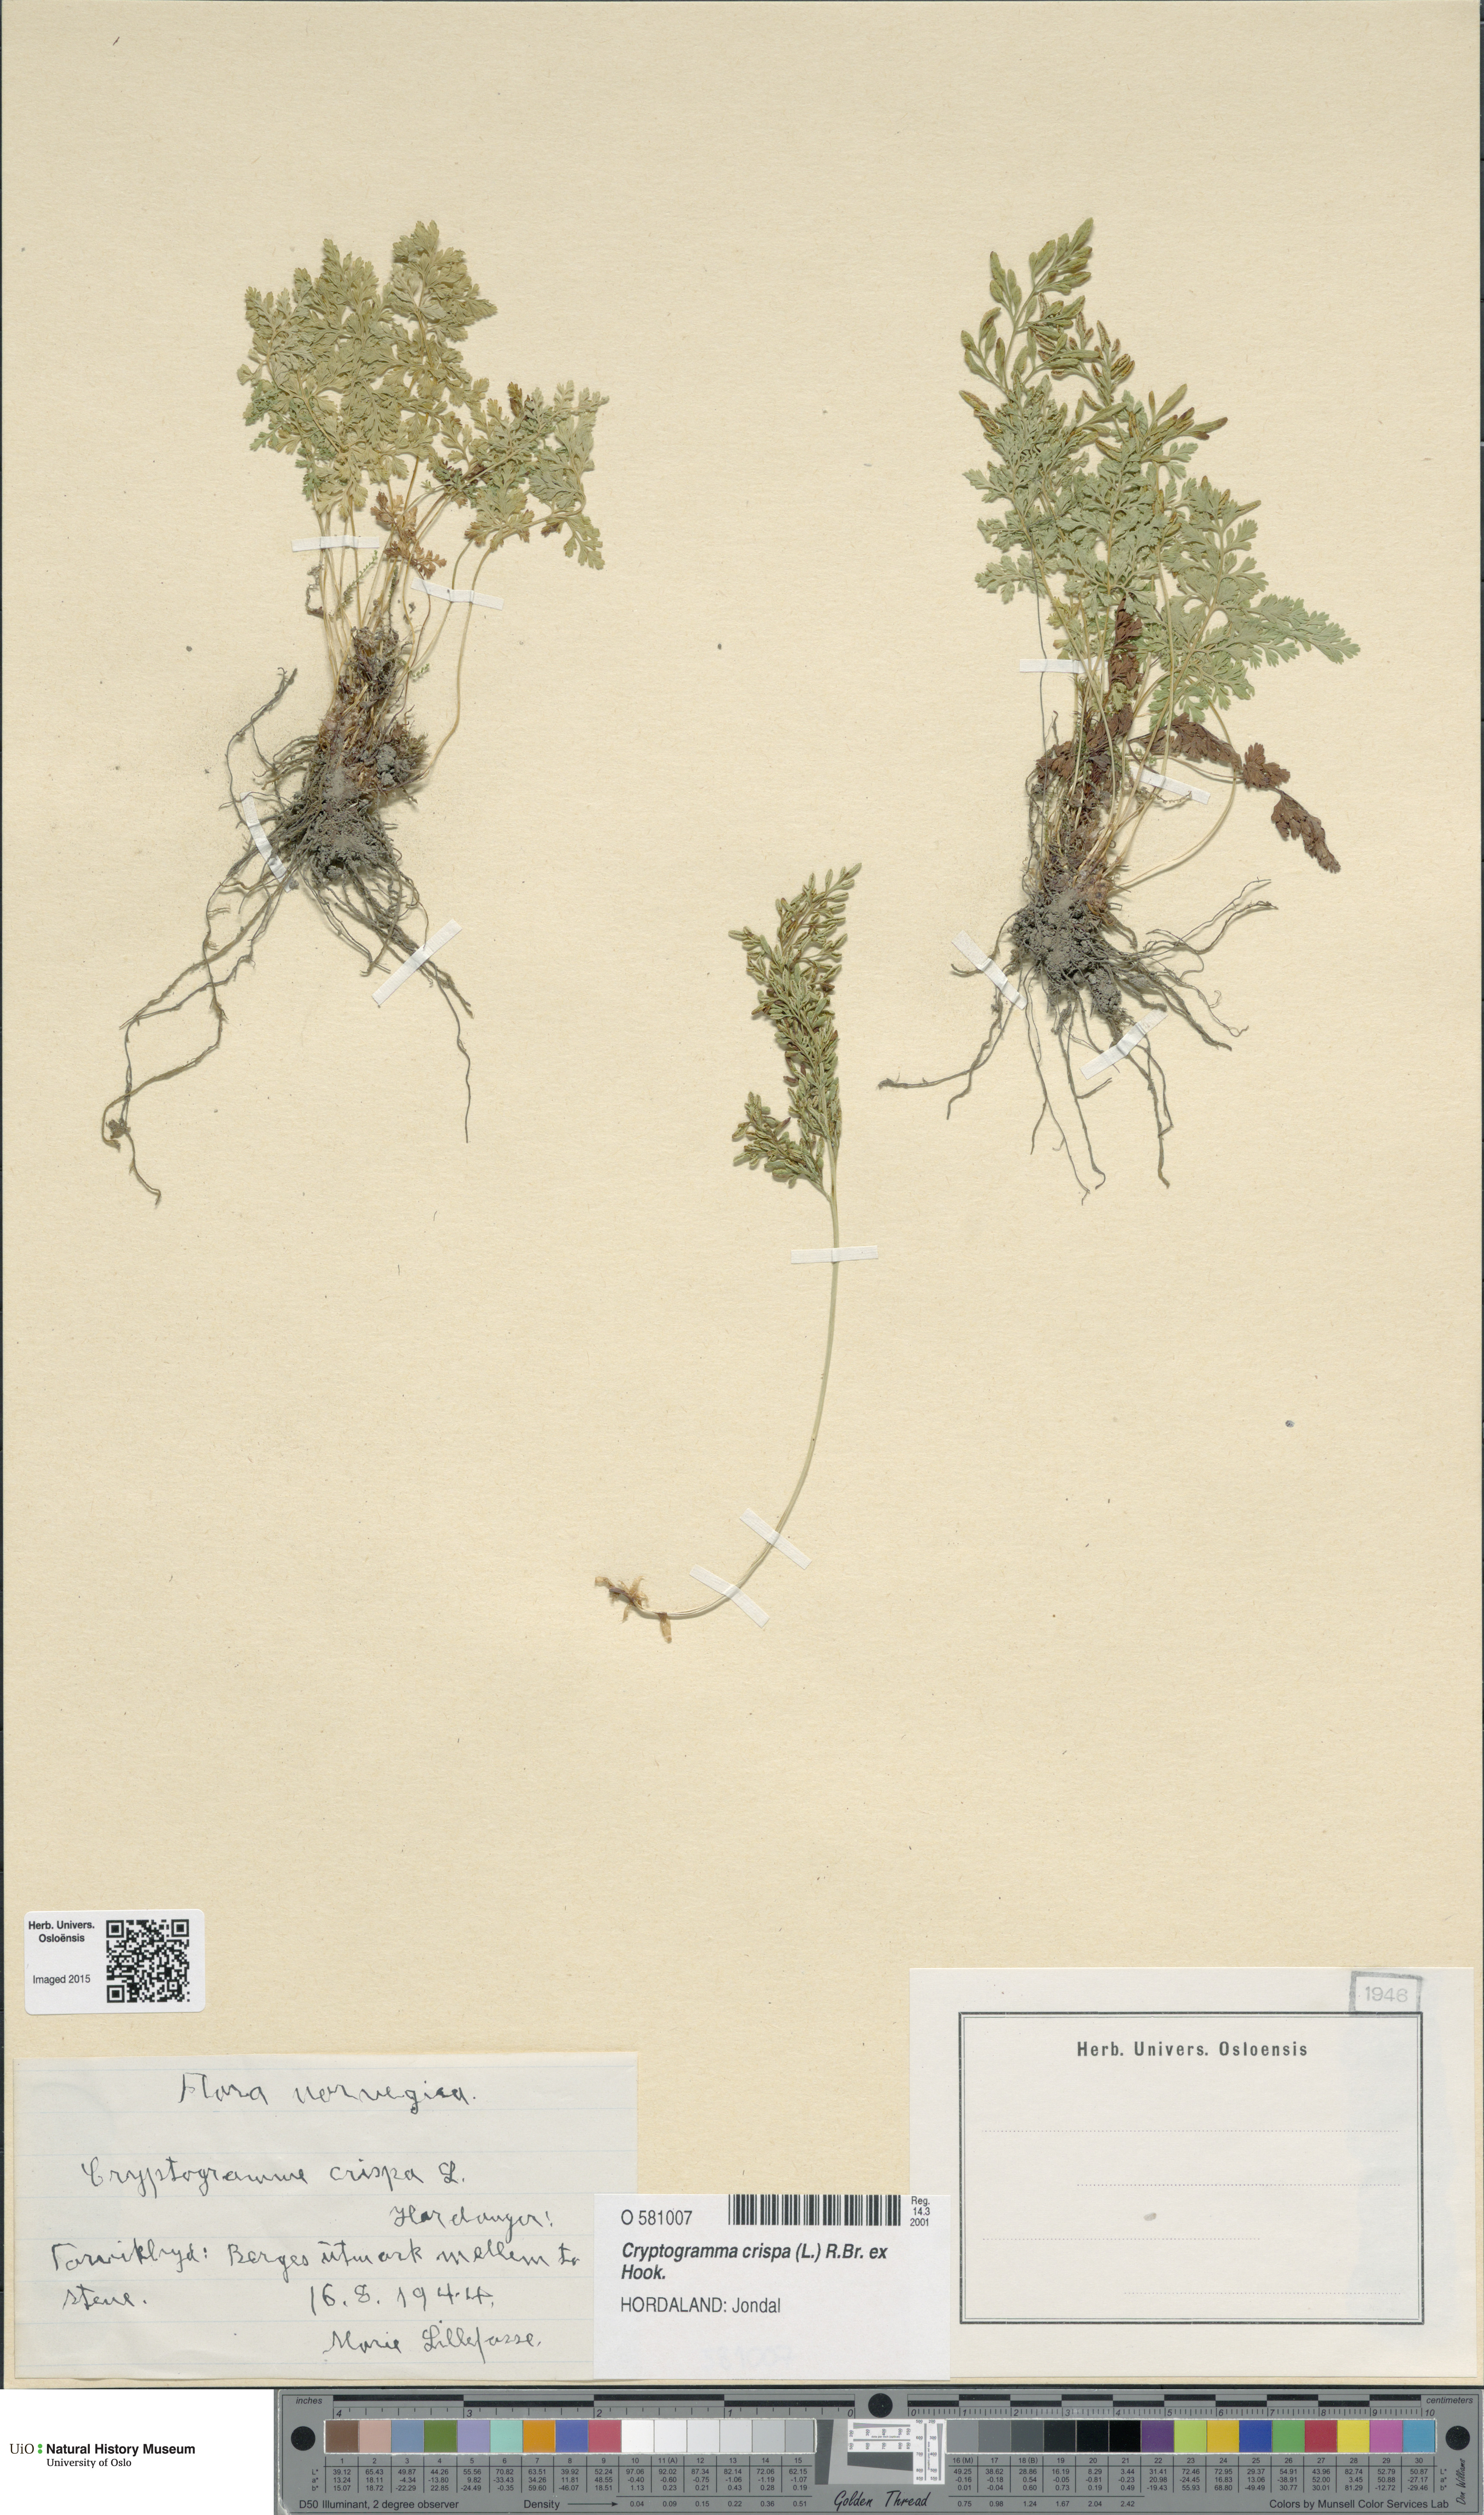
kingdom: Plantae
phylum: Tracheophyta
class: Polypodiopsida
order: Polypodiales
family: Pteridaceae
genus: Cryptogramma
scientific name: Cryptogramma crispa
